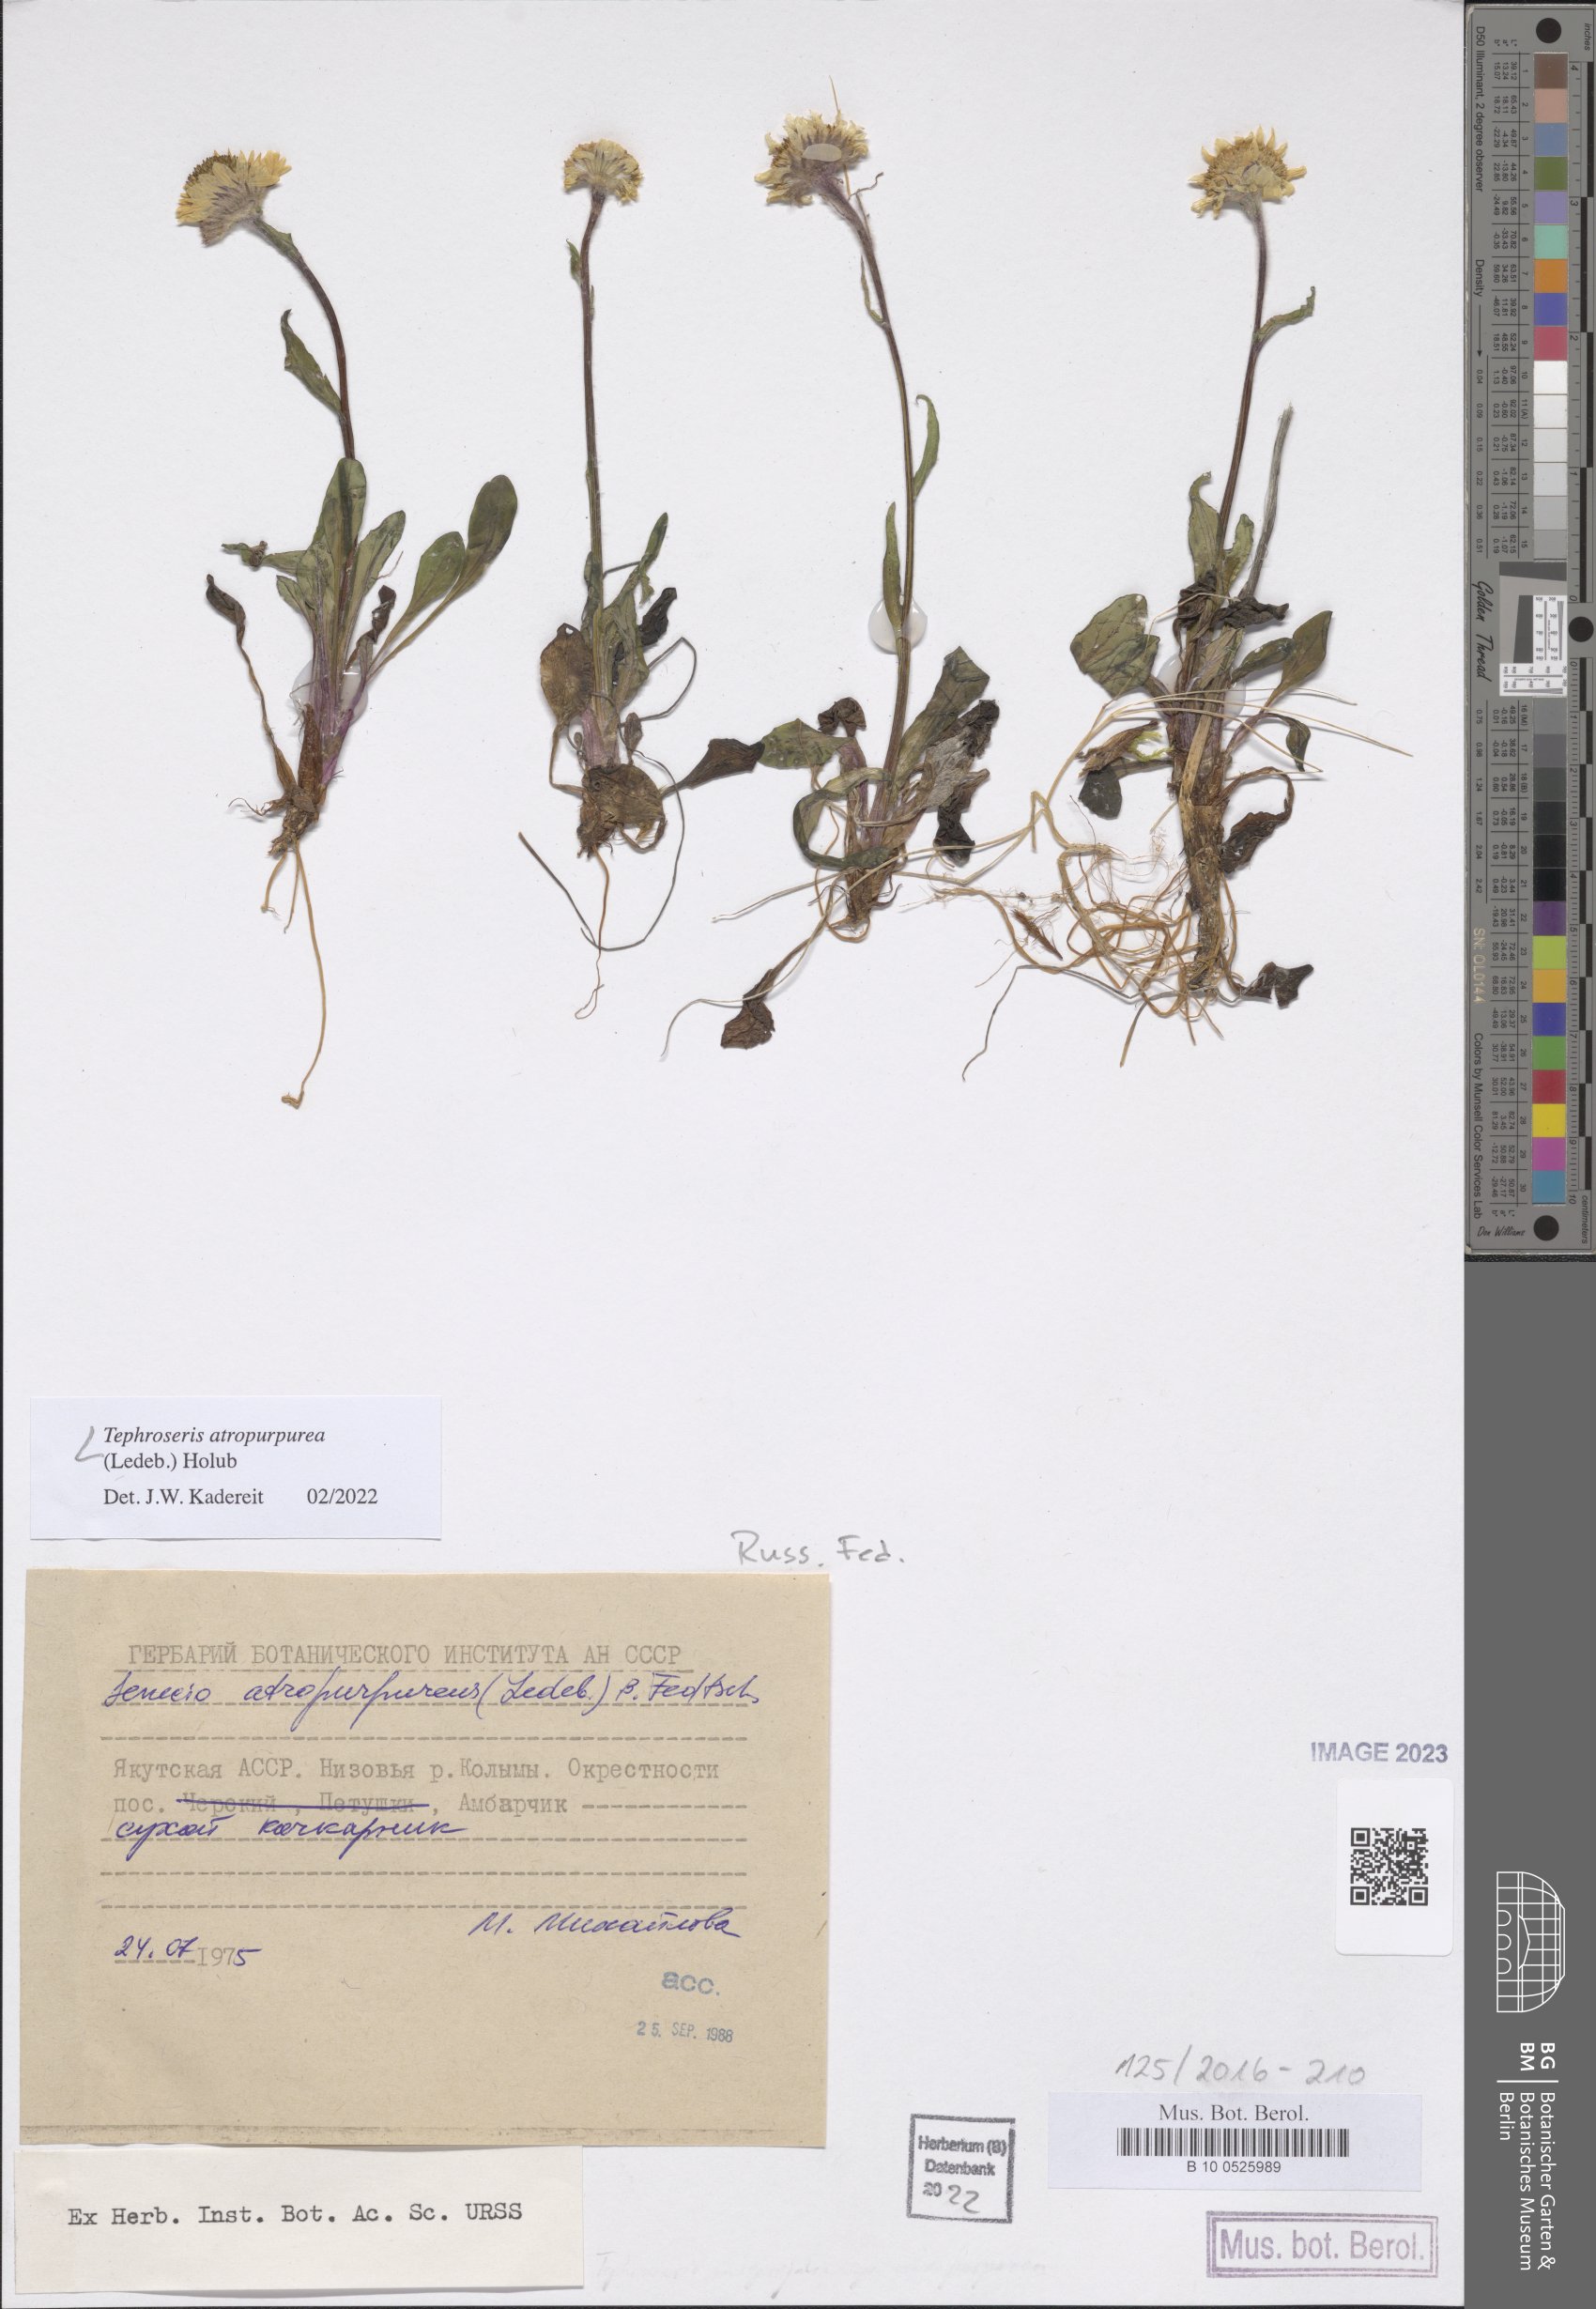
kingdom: Plantae
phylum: Tracheophyta
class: Magnoliopsida
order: Asterales
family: Asteraceae
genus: Tephroseris
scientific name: Tephroseris integrifolia
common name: Field fleawort
